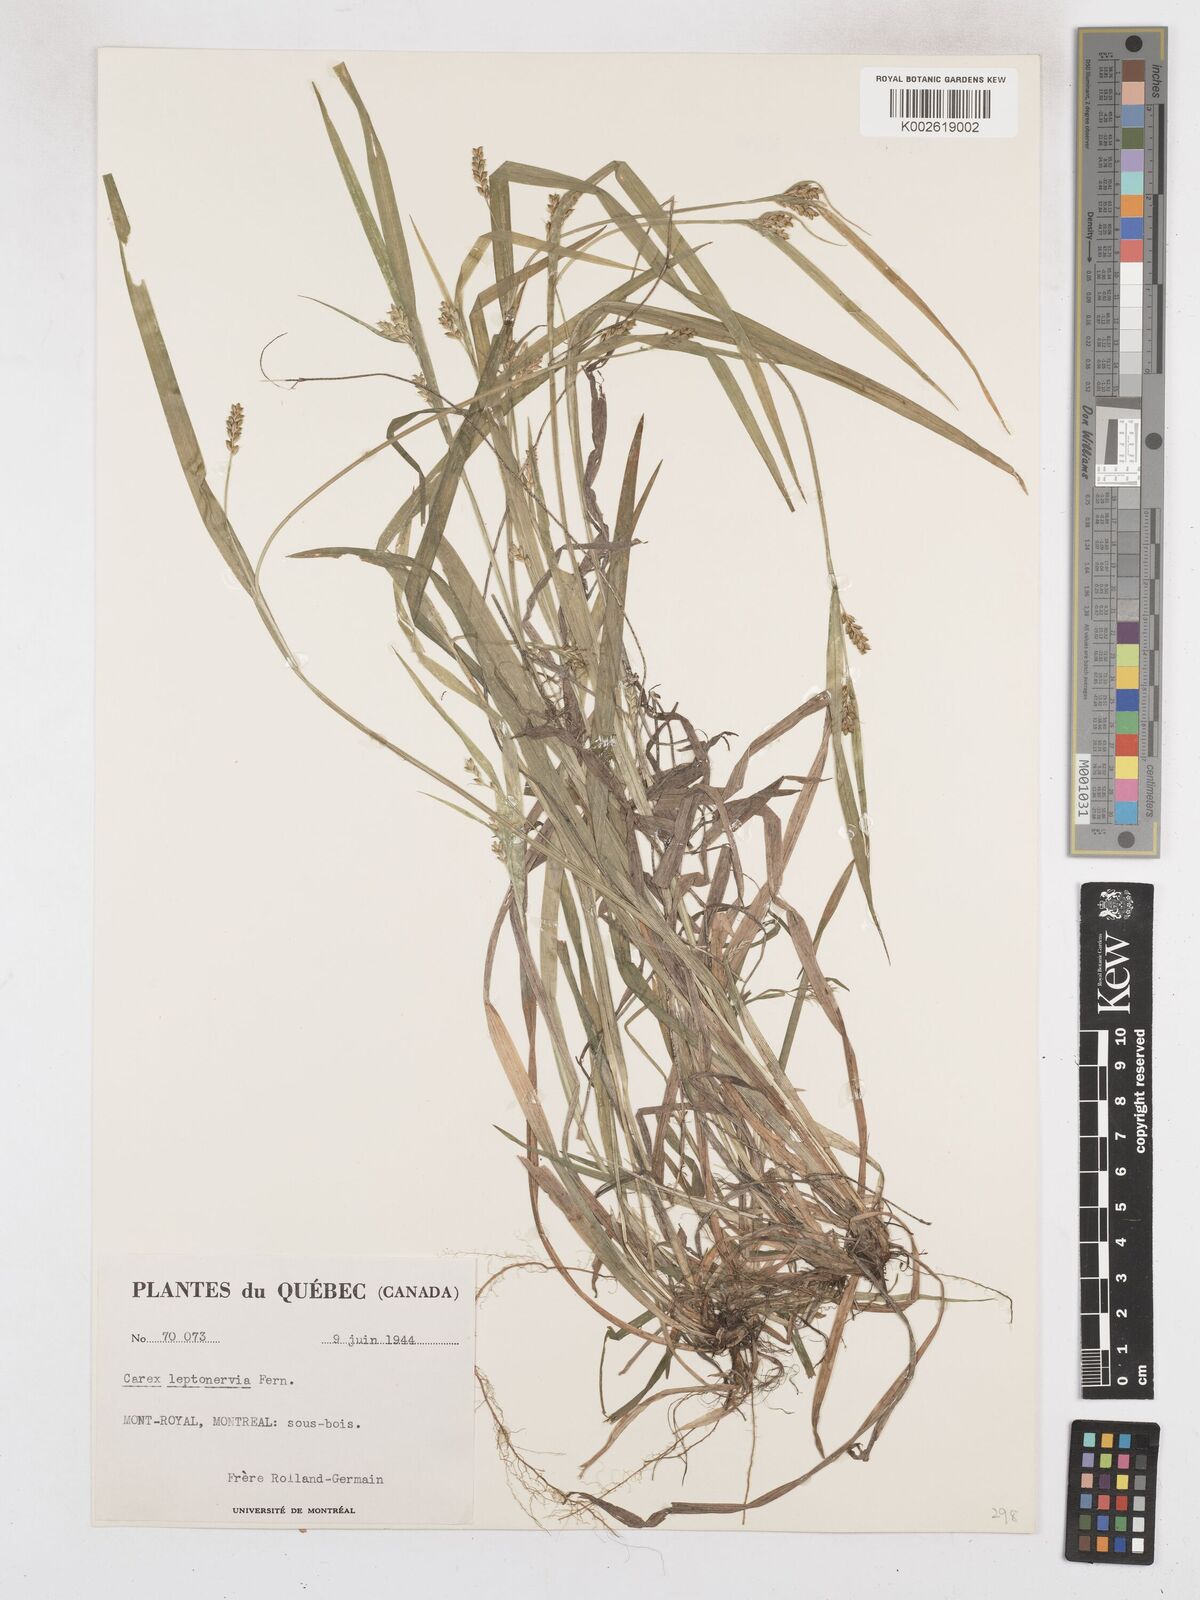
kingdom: Plantae
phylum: Tracheophyta
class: Liliopsida
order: Poales
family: Cyperaceae
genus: Carex
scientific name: Carex leptonervia
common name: Few-nerved wood sedge
